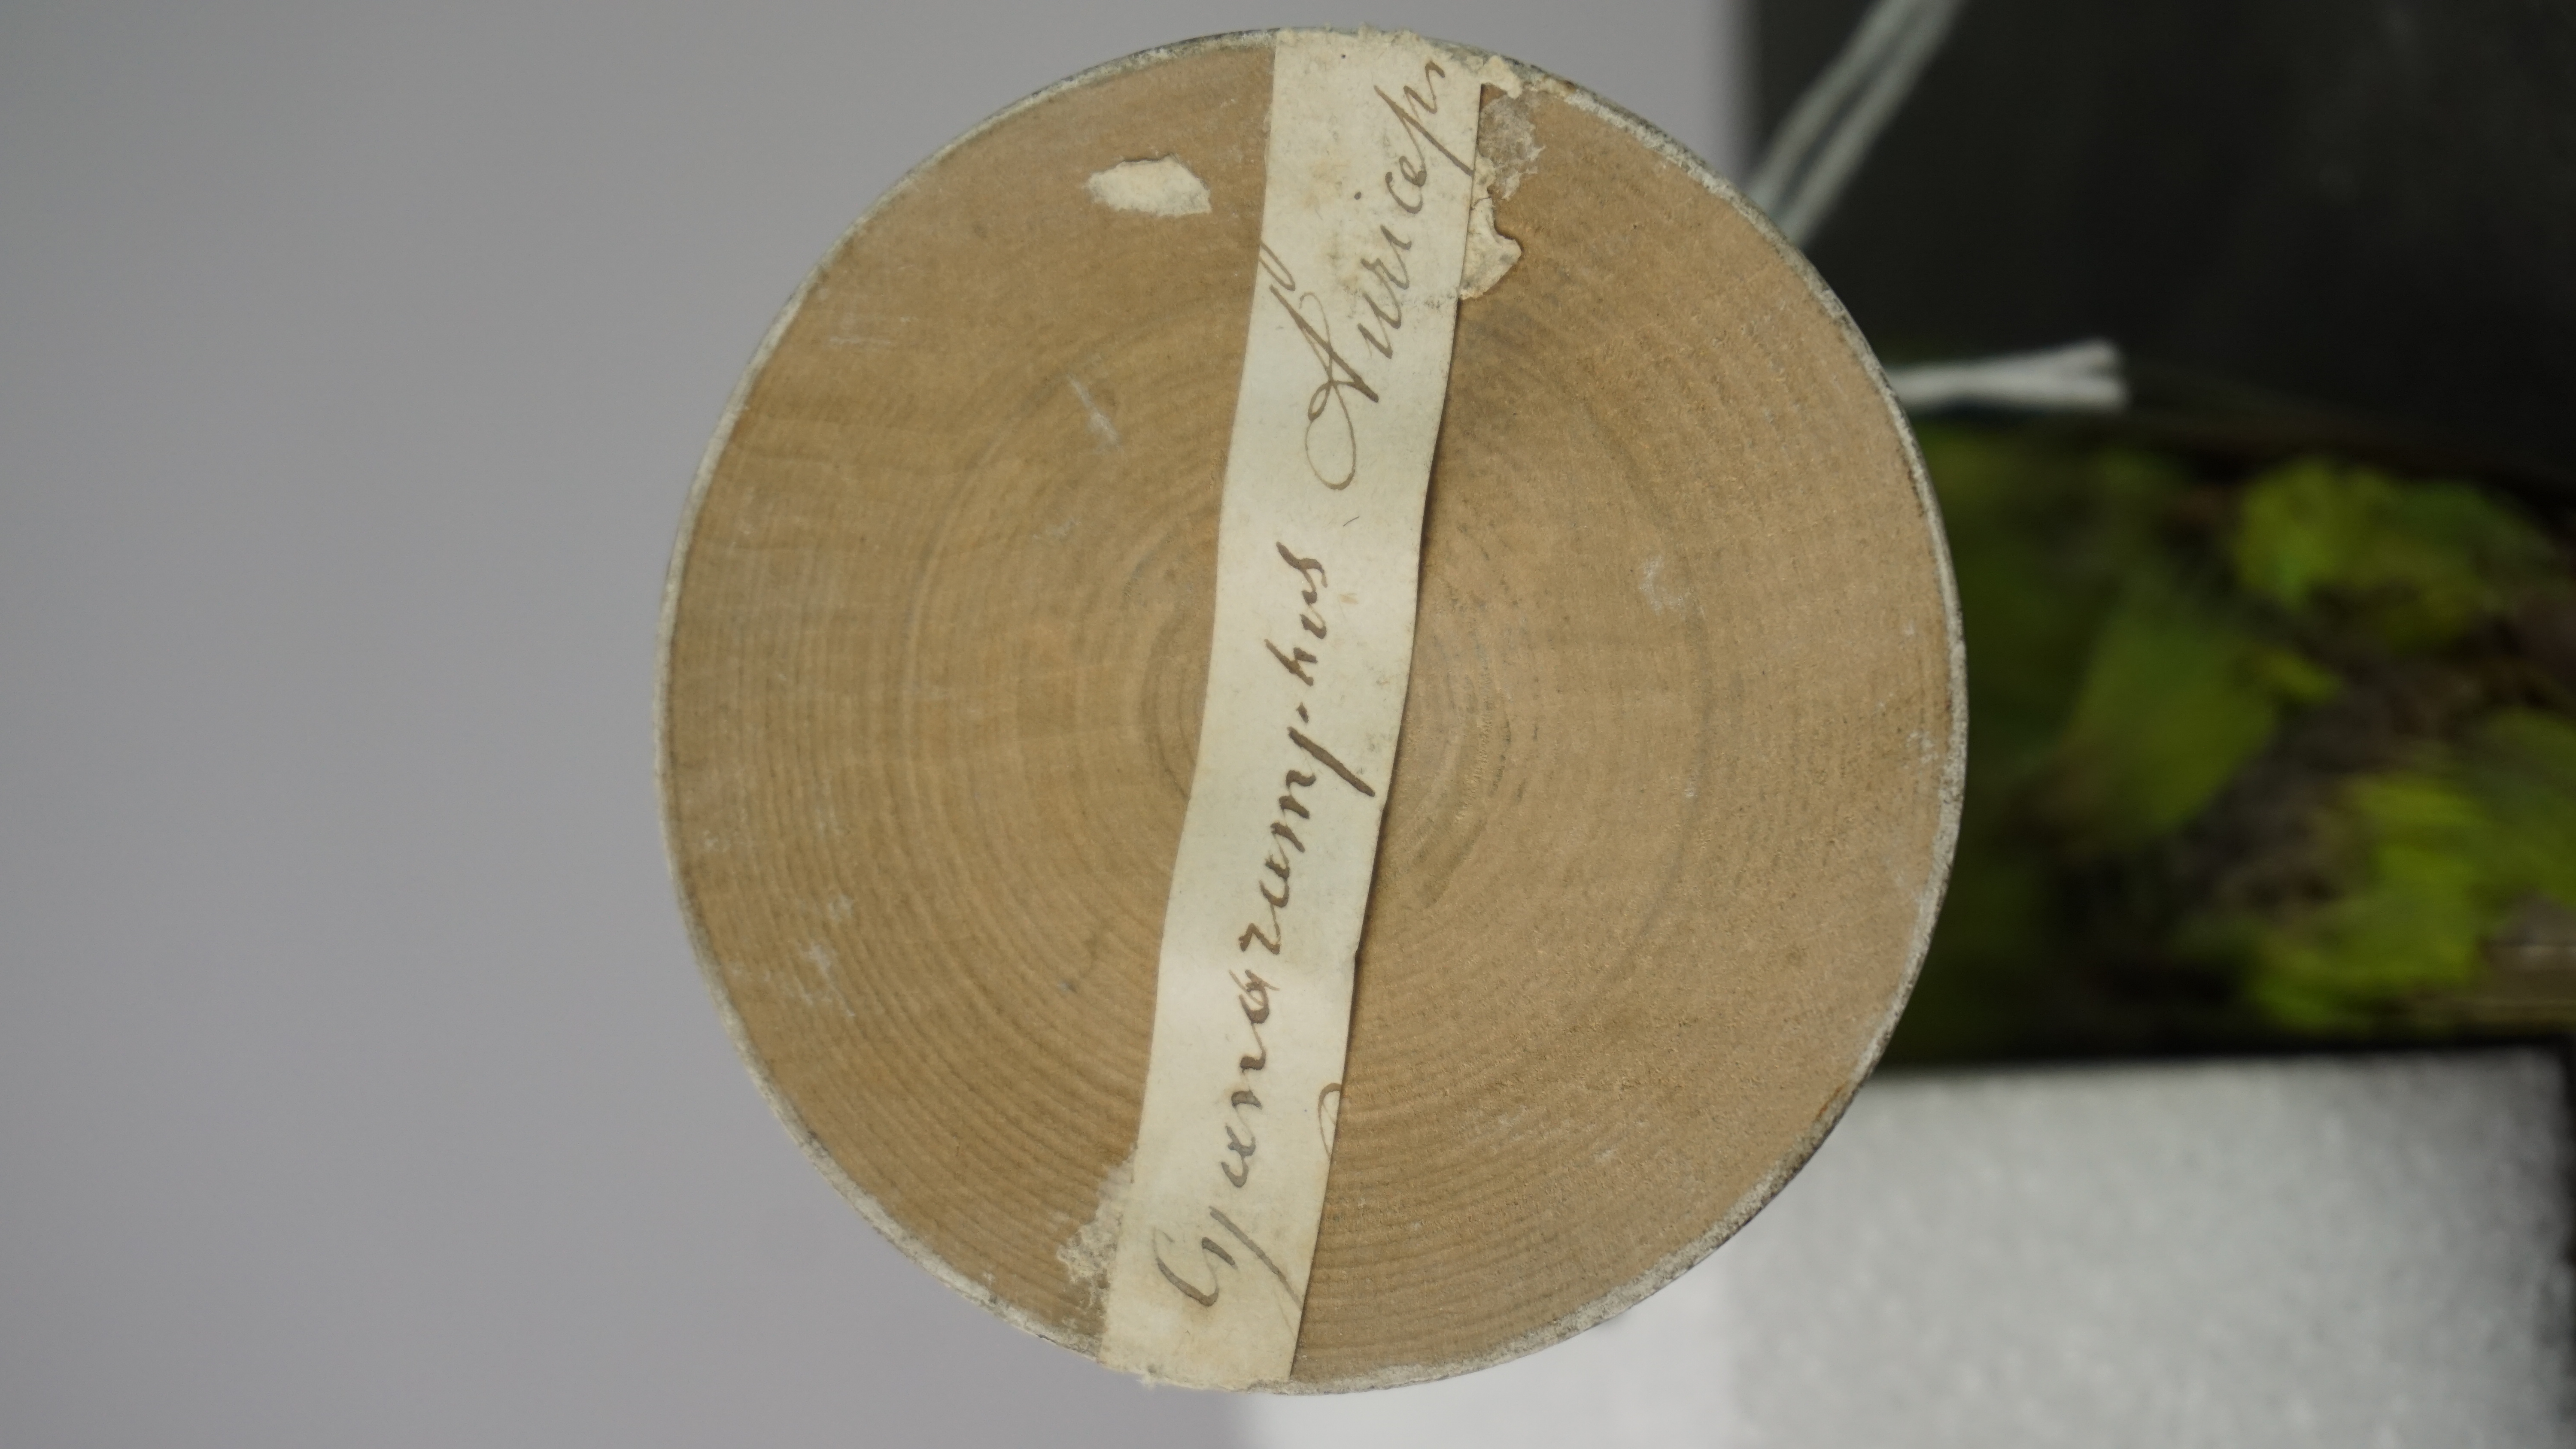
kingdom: Animalia
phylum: Chordata
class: Aves
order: Psittaciformes
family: Psittacidae
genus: Cyanoramphus
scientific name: Cyanoramphus auriceps
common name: Yellow-crowned parakeet
